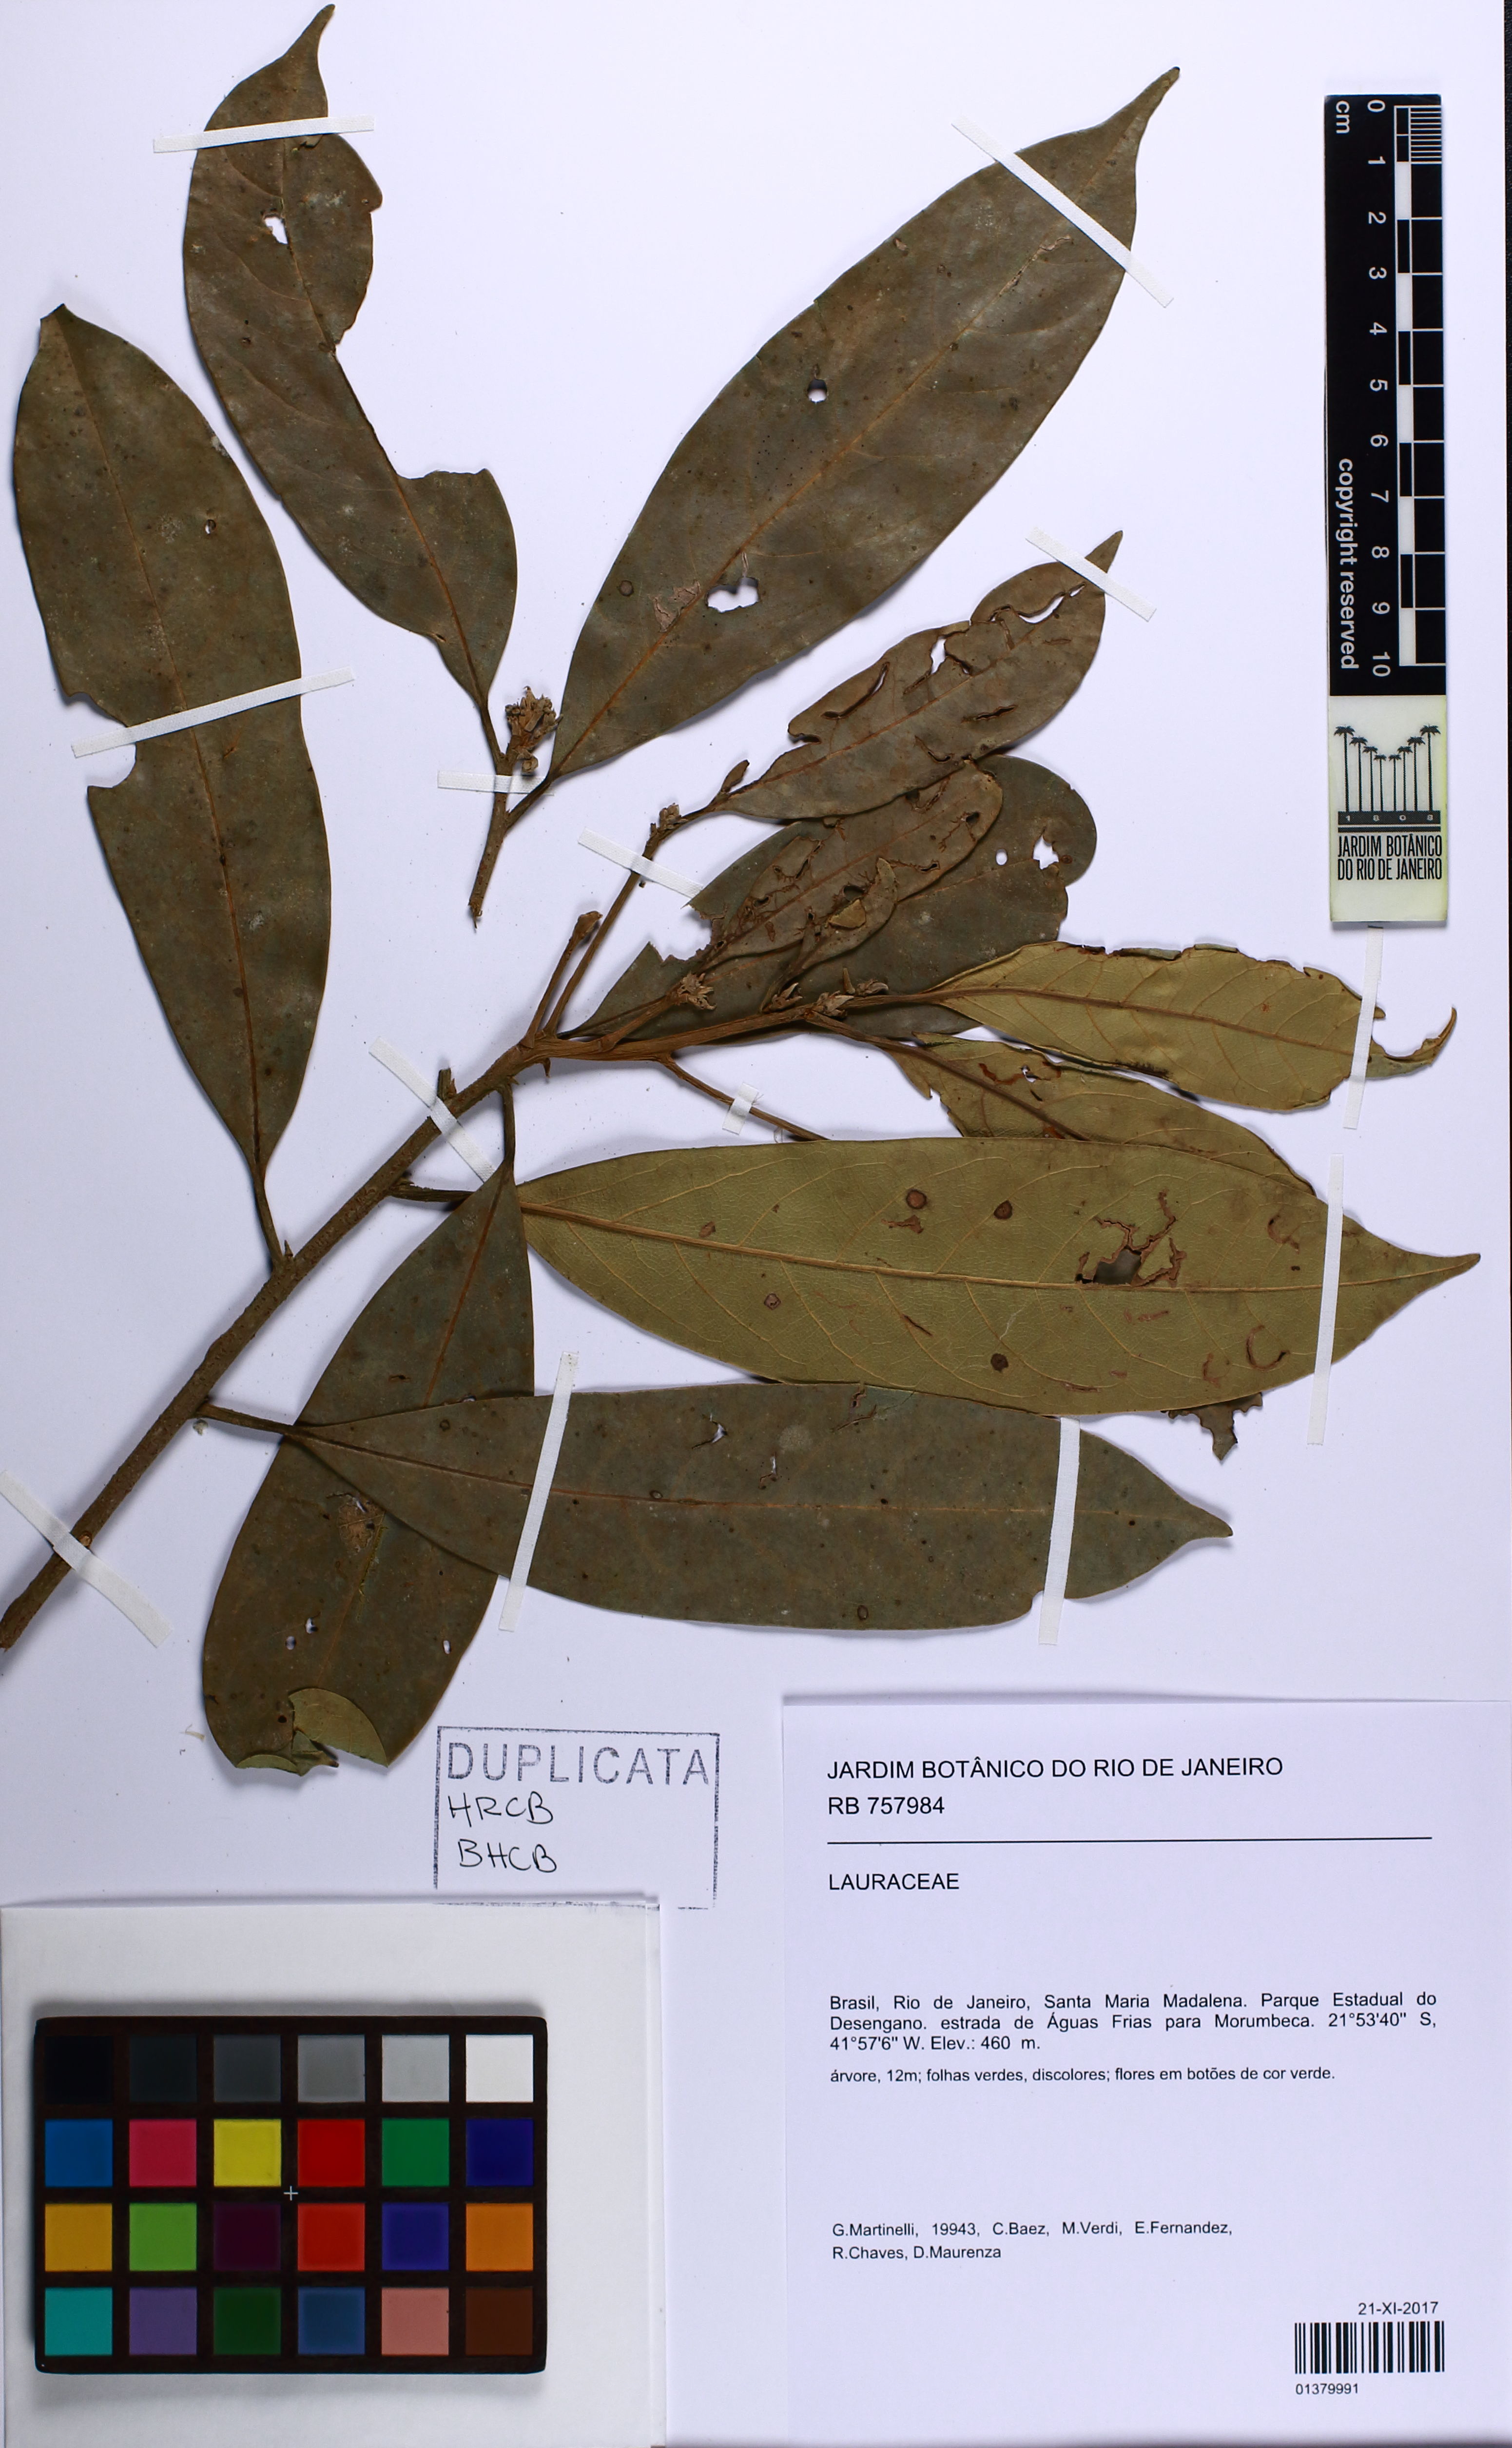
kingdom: Plantae
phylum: Tracheophyta
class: Magnoliopsida
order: Laurales
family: Lauraceae
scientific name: Lauraceae
